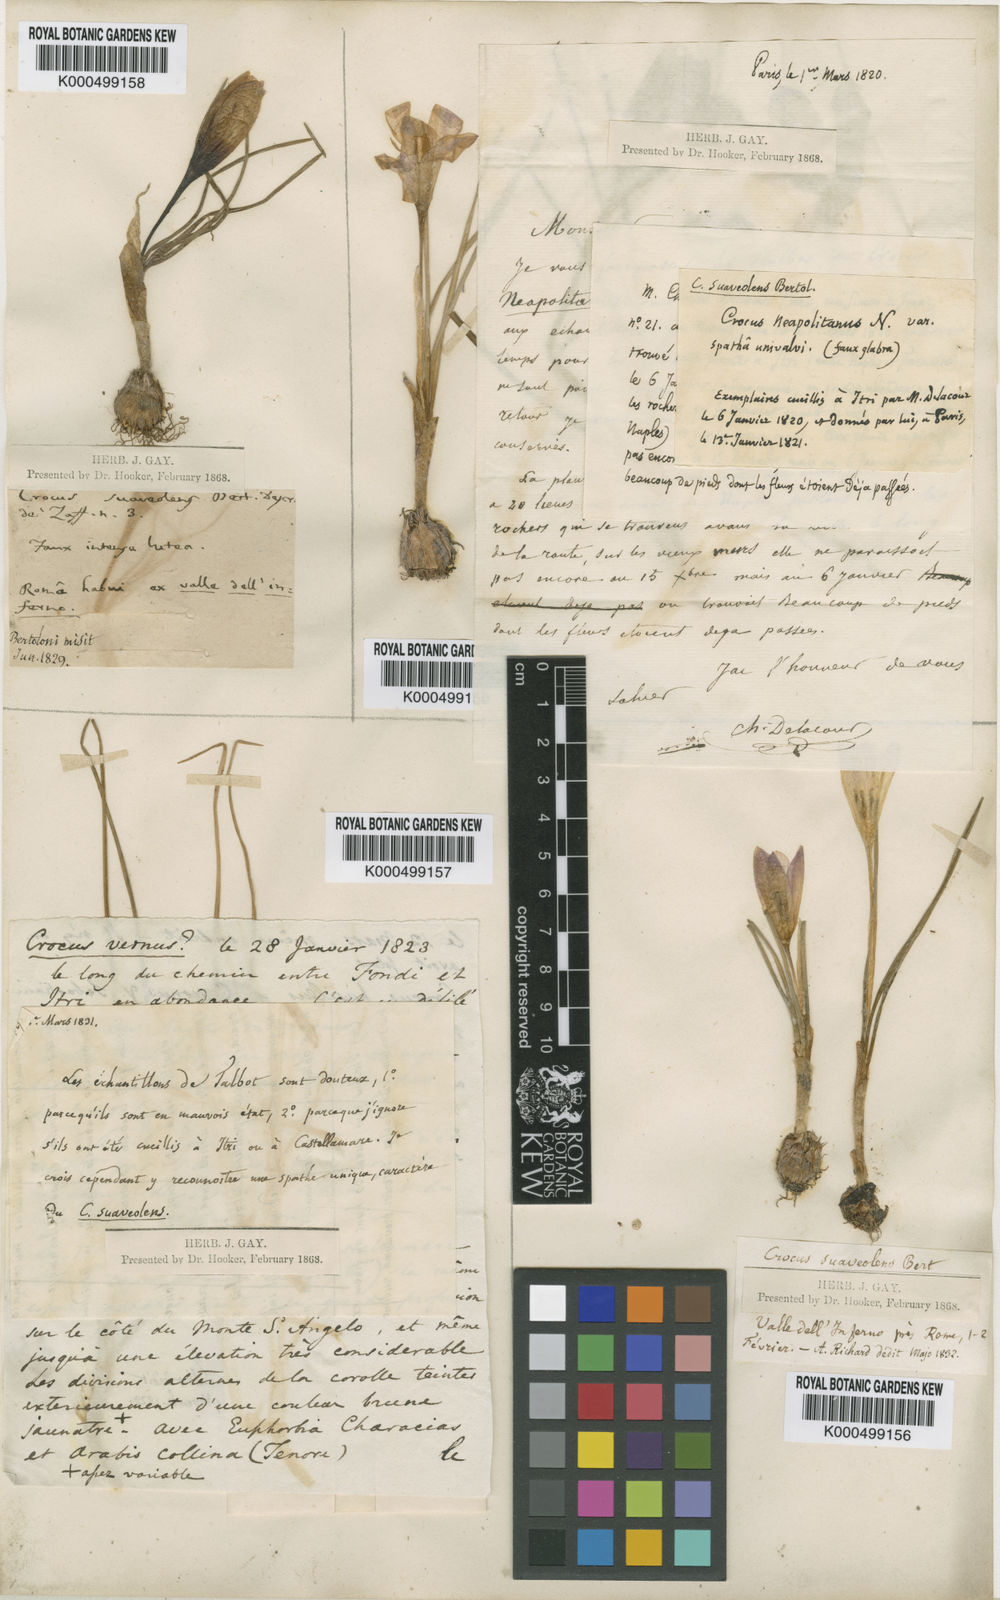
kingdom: Plantae
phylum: Tracheophyta
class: Liliopsida
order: Asparagales
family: Iridaceae
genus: Crocus
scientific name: Crocus suaveolens
